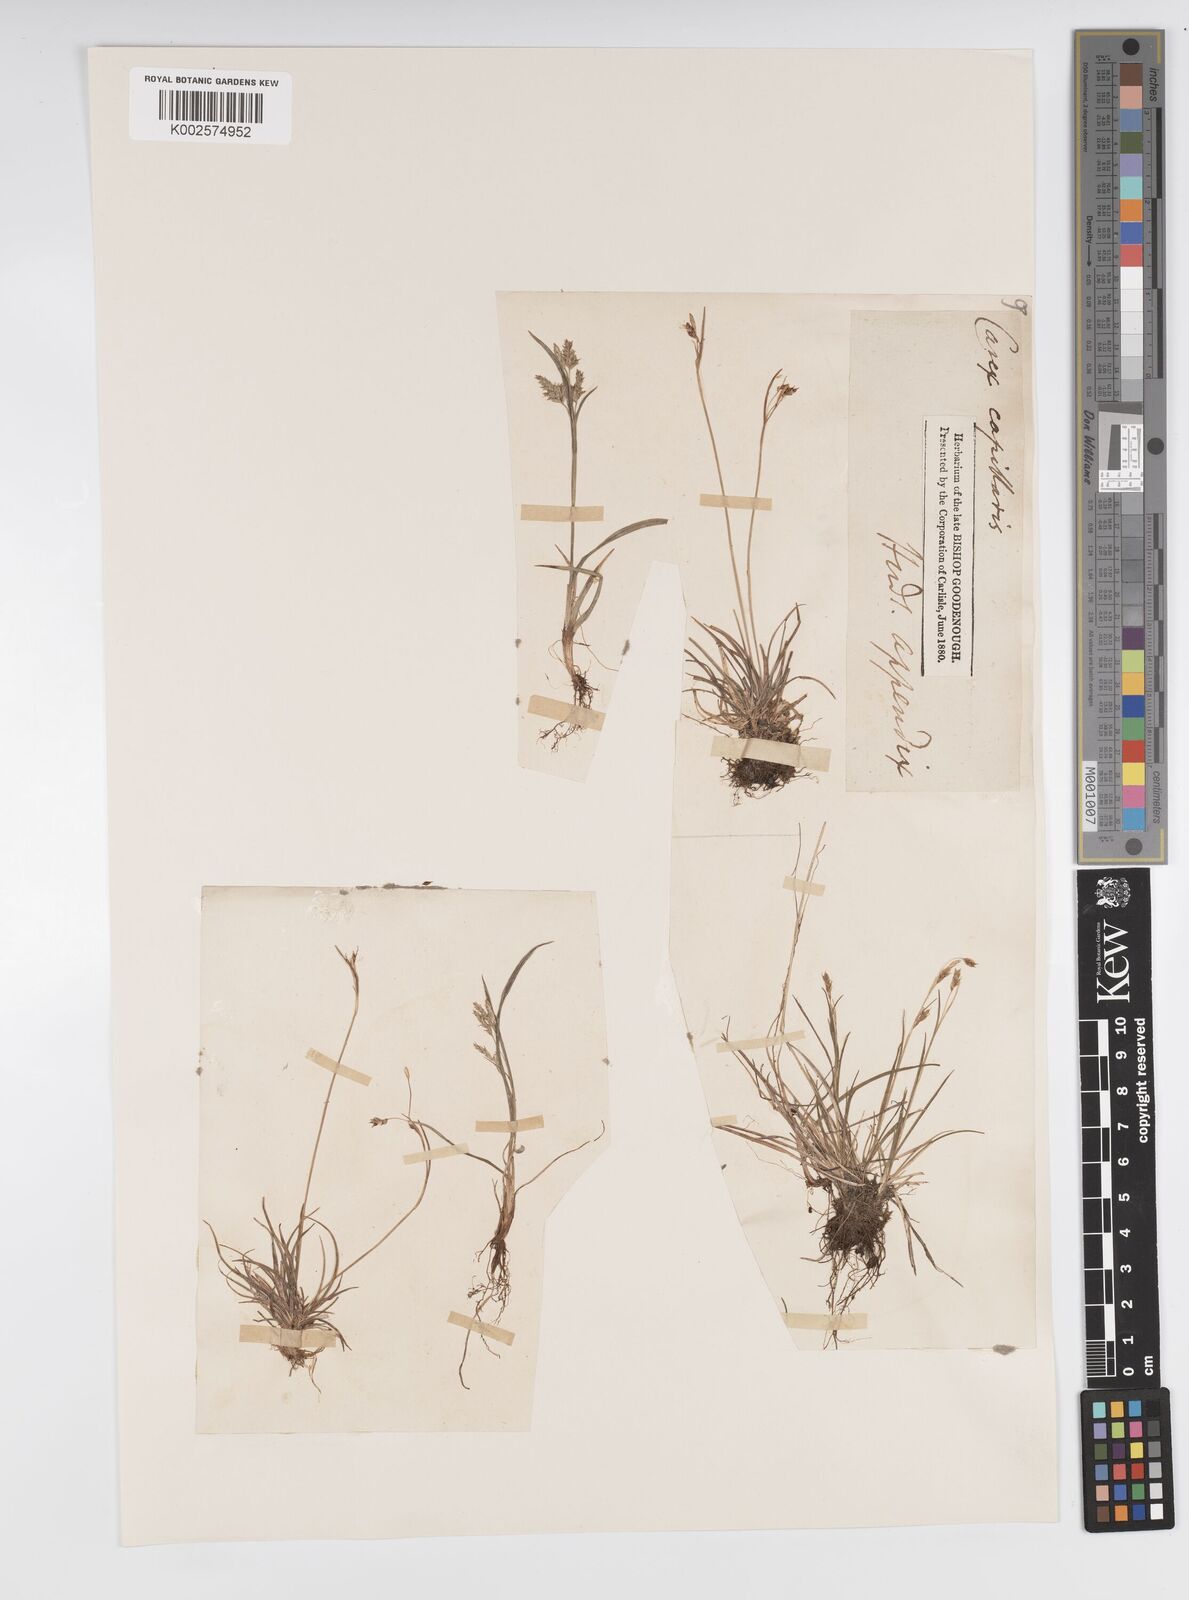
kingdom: Plantae
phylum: Tracheophyta
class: Liliopsida
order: Poales
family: Cyperaceae
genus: Carex
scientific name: Carex capillaris
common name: Hair sedge
